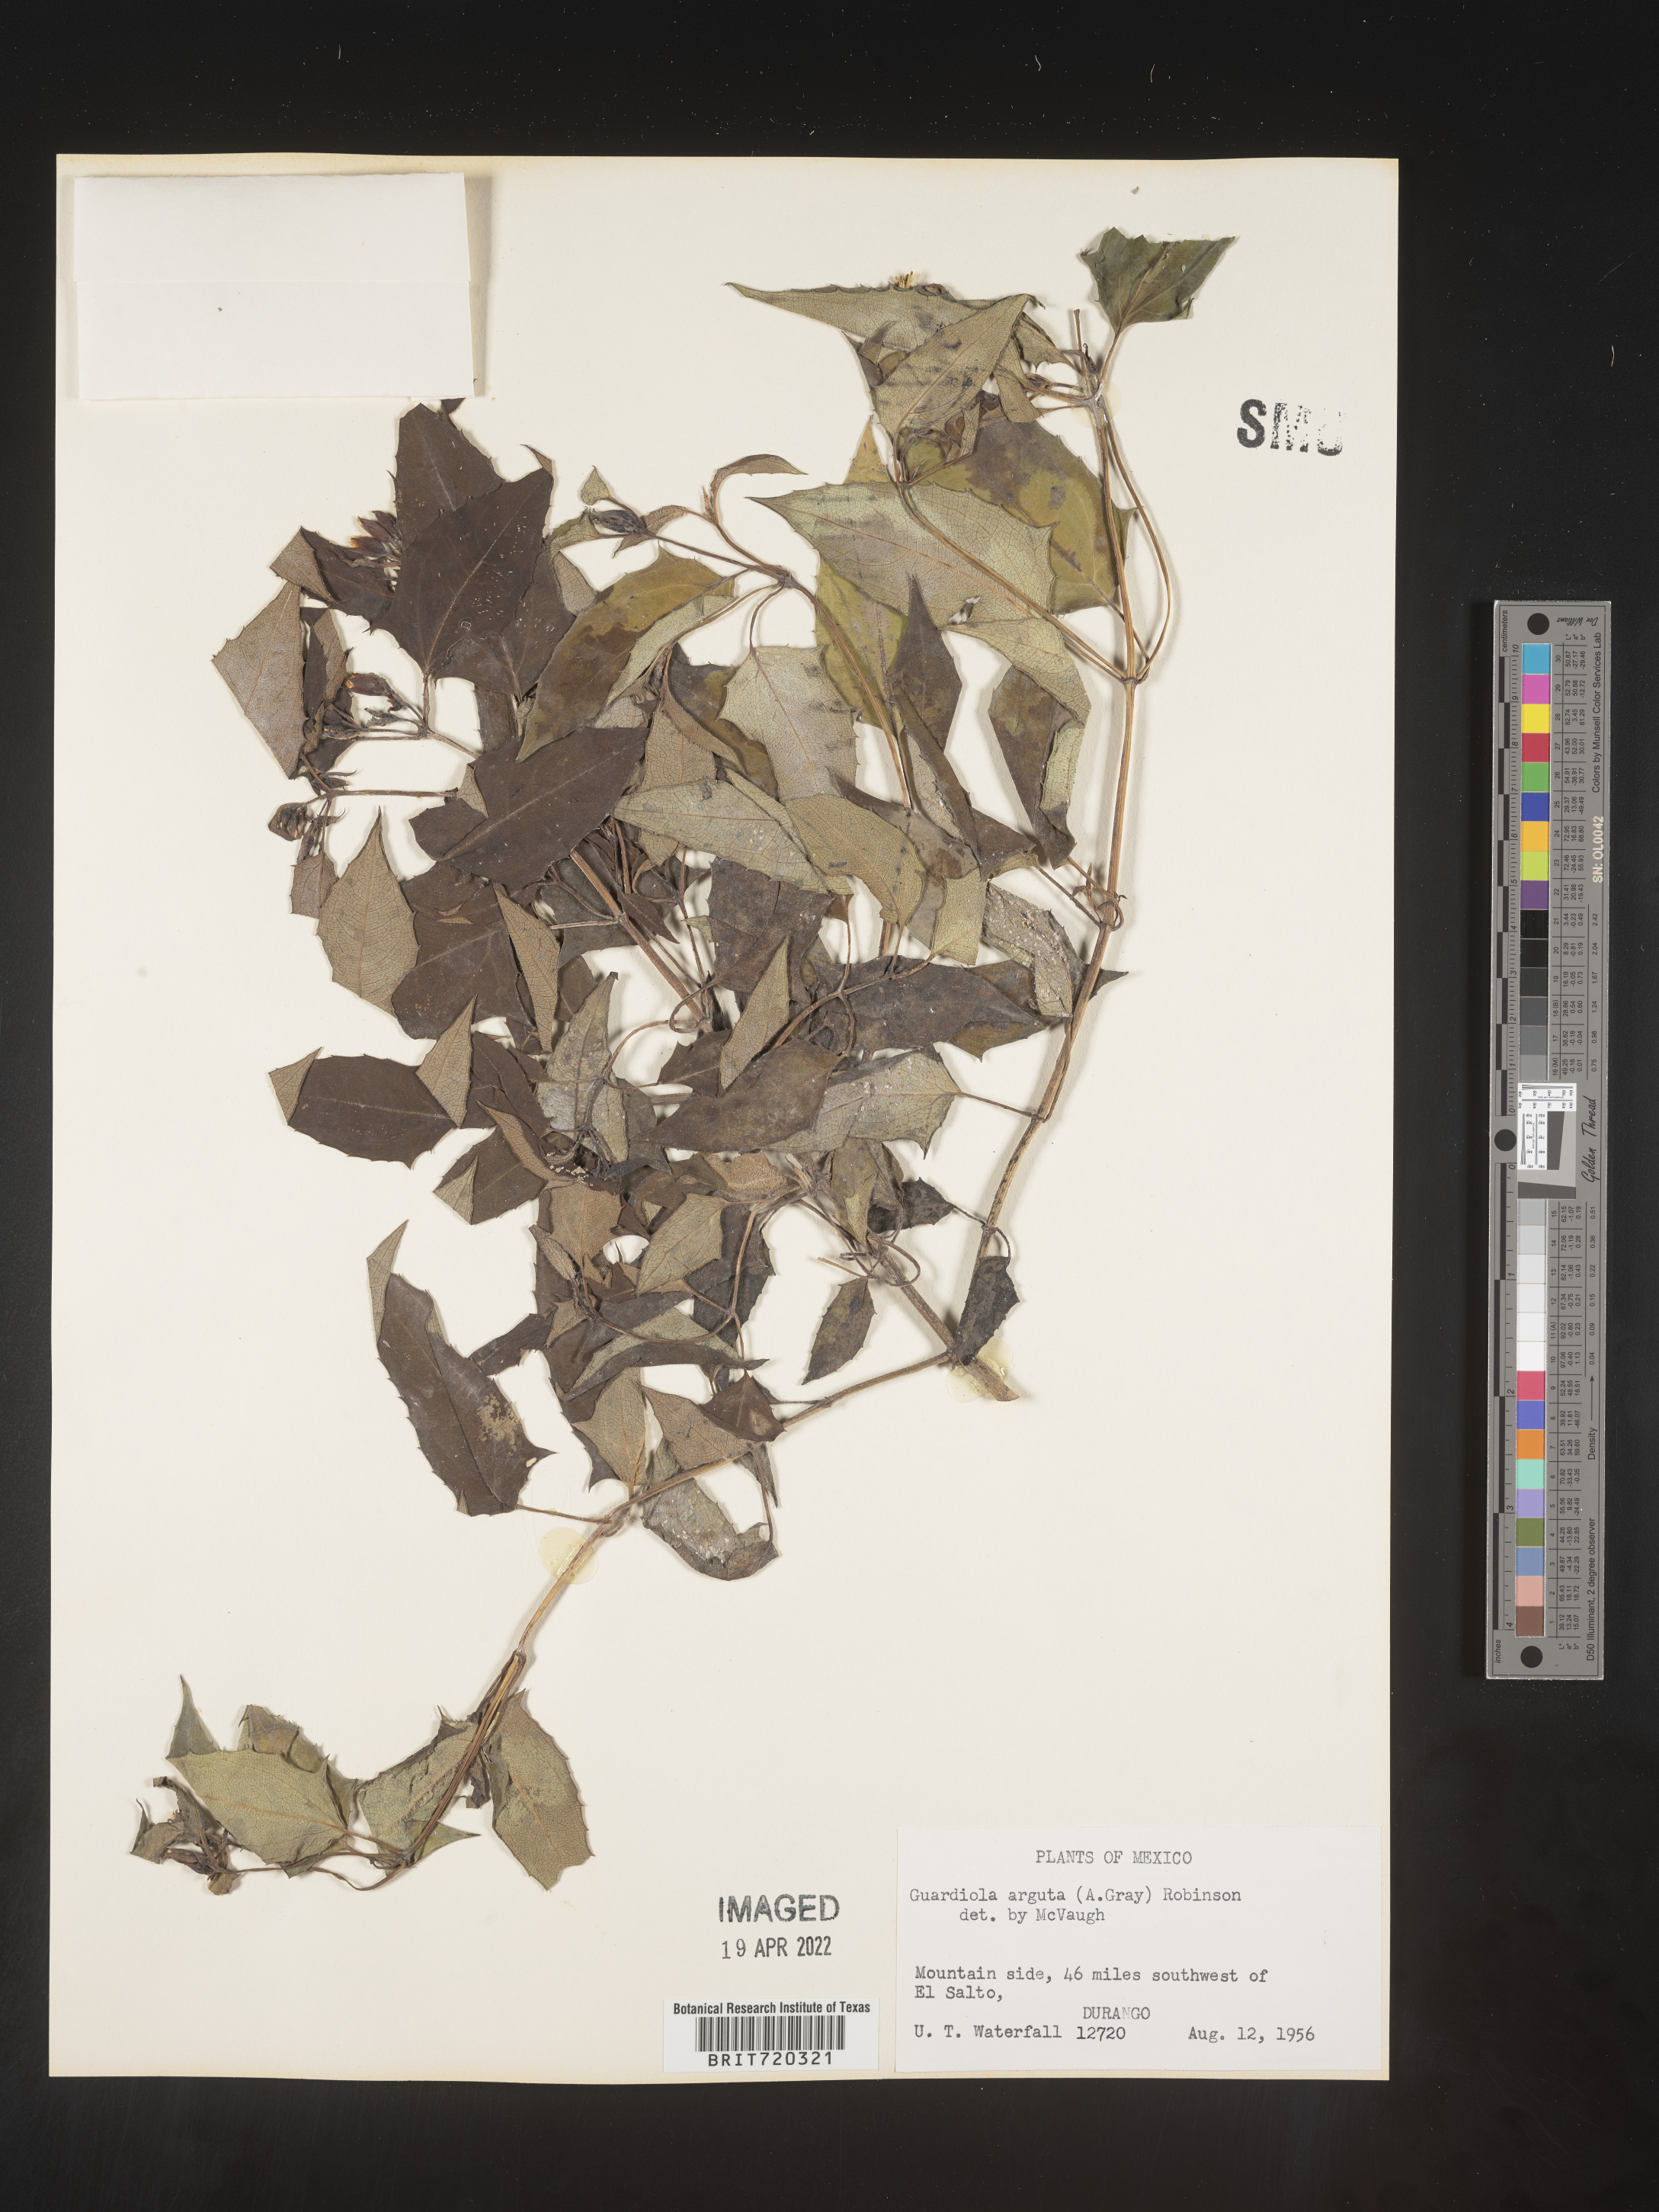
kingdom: Plantae
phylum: Tracheophyta
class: Magnoliopsida
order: Asterales
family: Asteraceae
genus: Guardiola
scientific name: Guardiola
